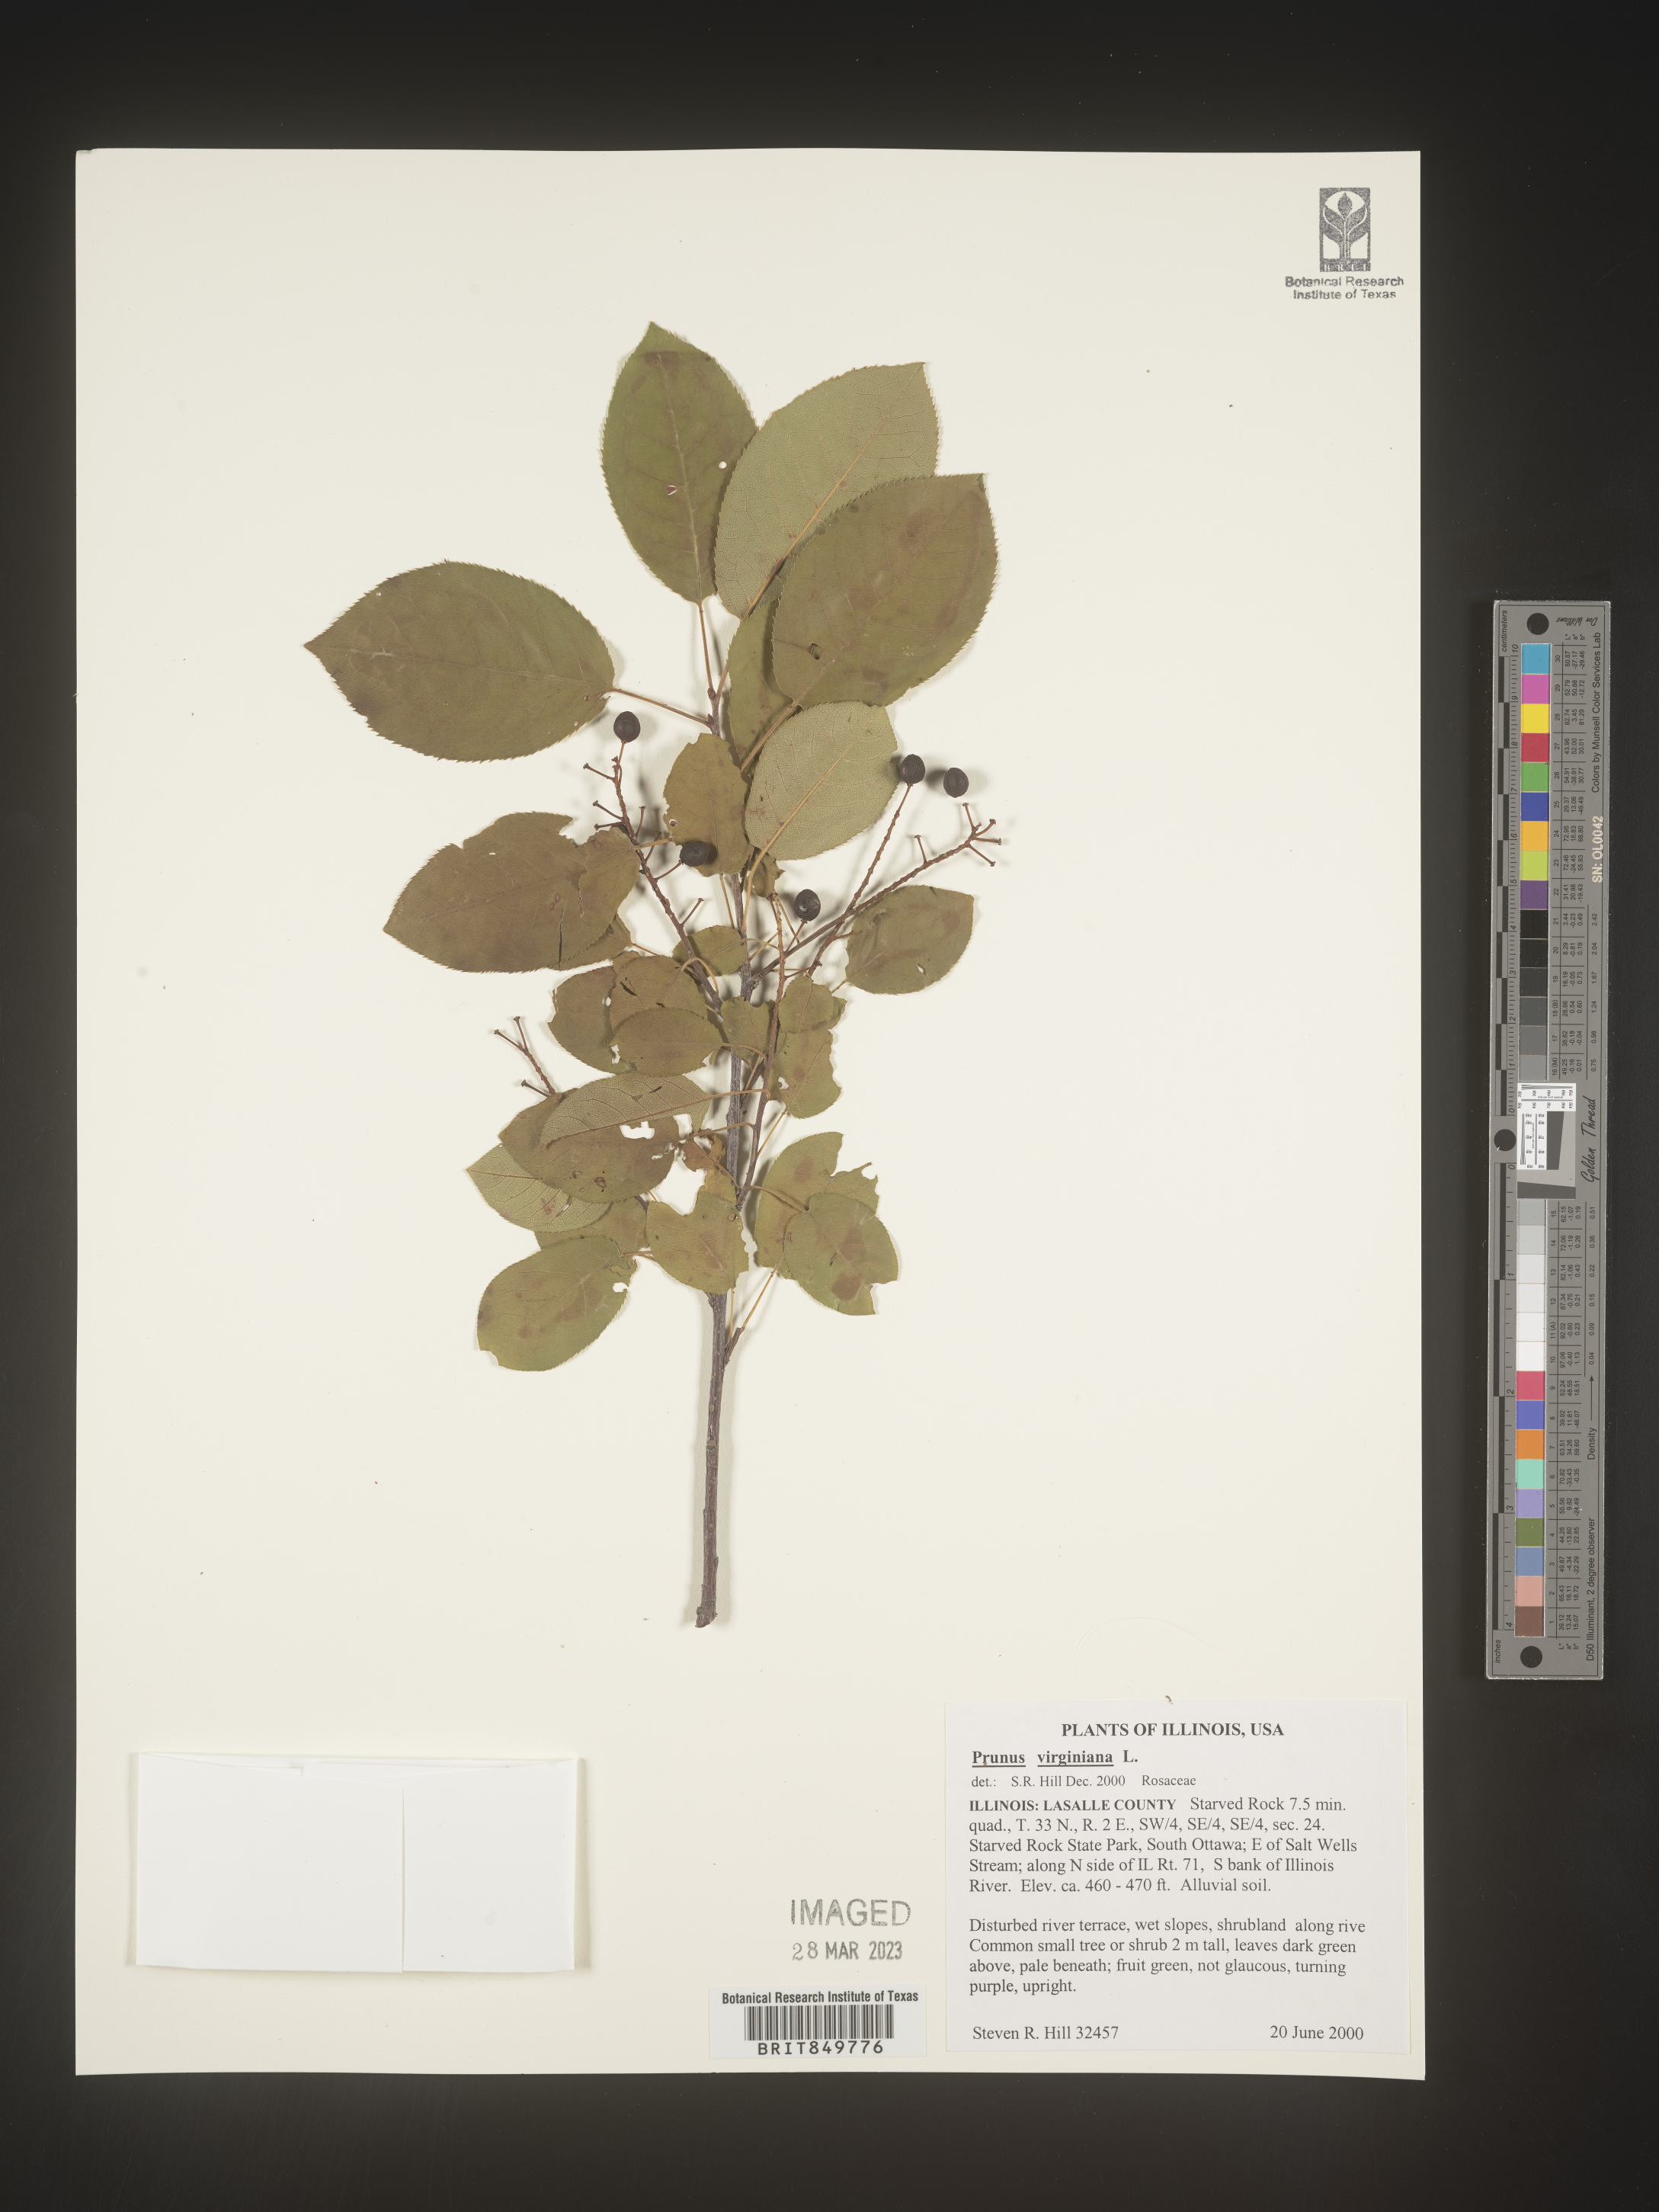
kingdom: Plantae
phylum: Tracheophyta
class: Magnoliopsida
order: Rosales
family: Rosaceae
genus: Prunus
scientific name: Prunus virginiana
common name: Chokecherry
